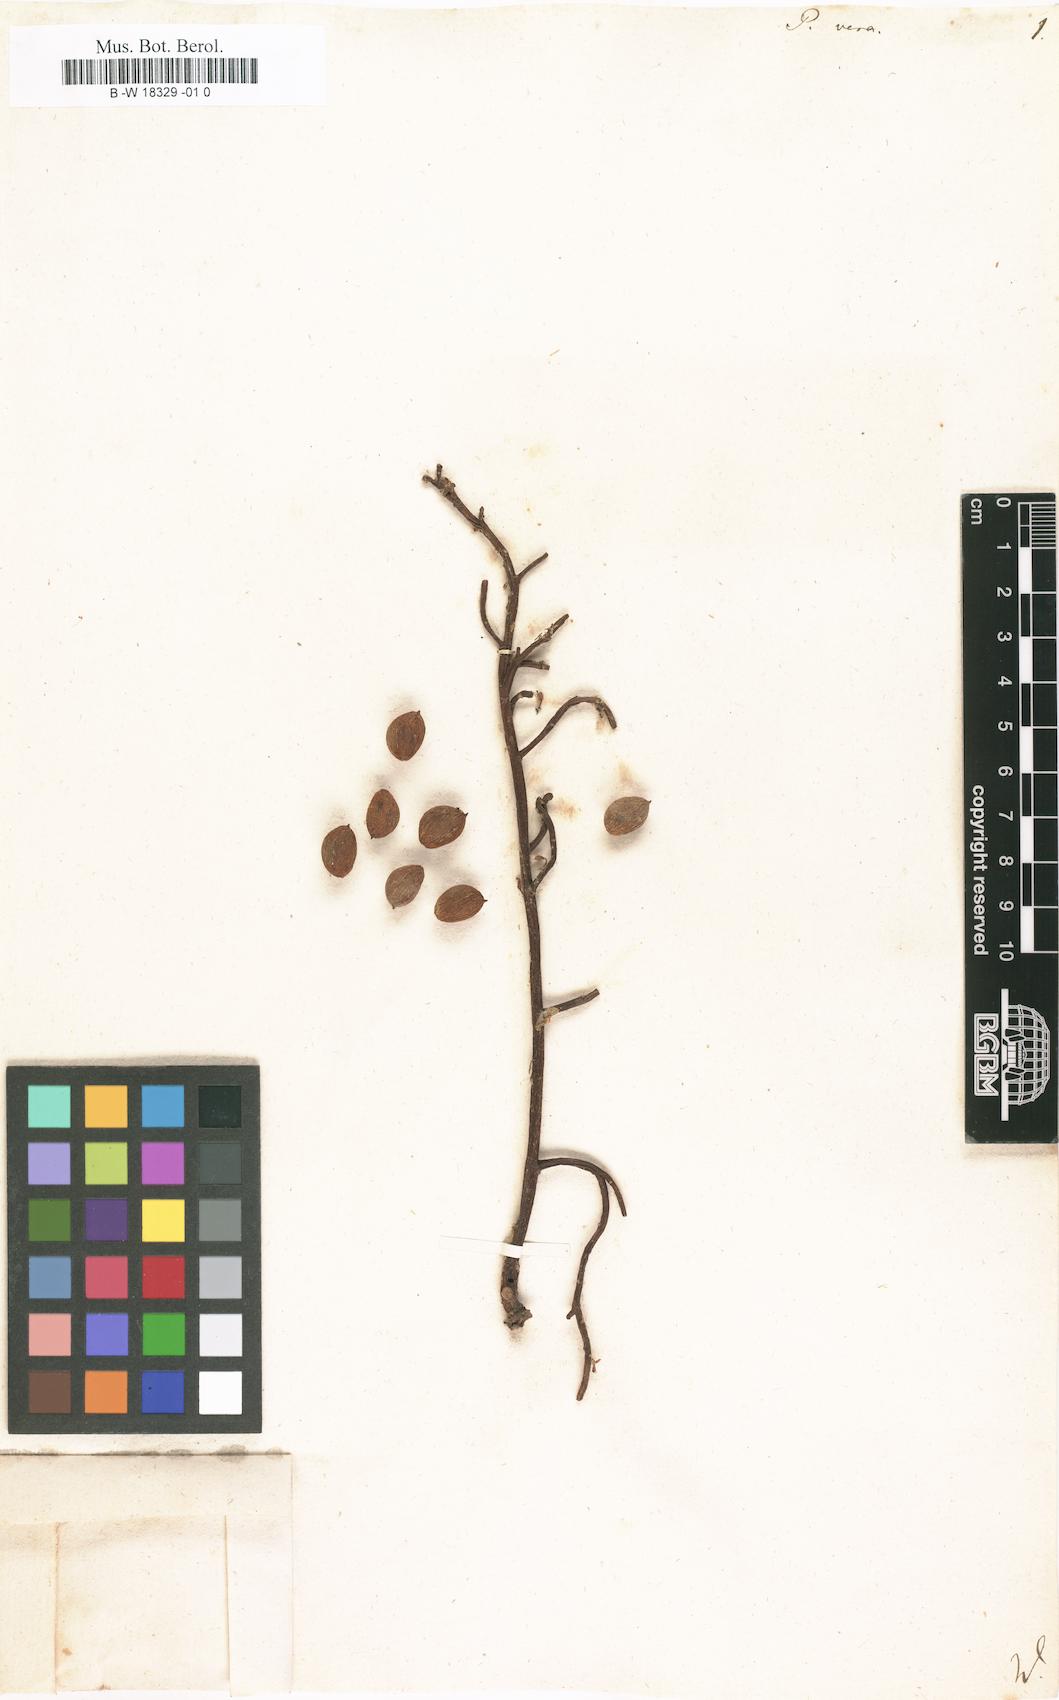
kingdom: Plantae
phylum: Tracheophyta
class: Magnoliopsida
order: Sapindales
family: Anacardiaceae
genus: Pistacia
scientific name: Pistacia vera
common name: Pistachio
